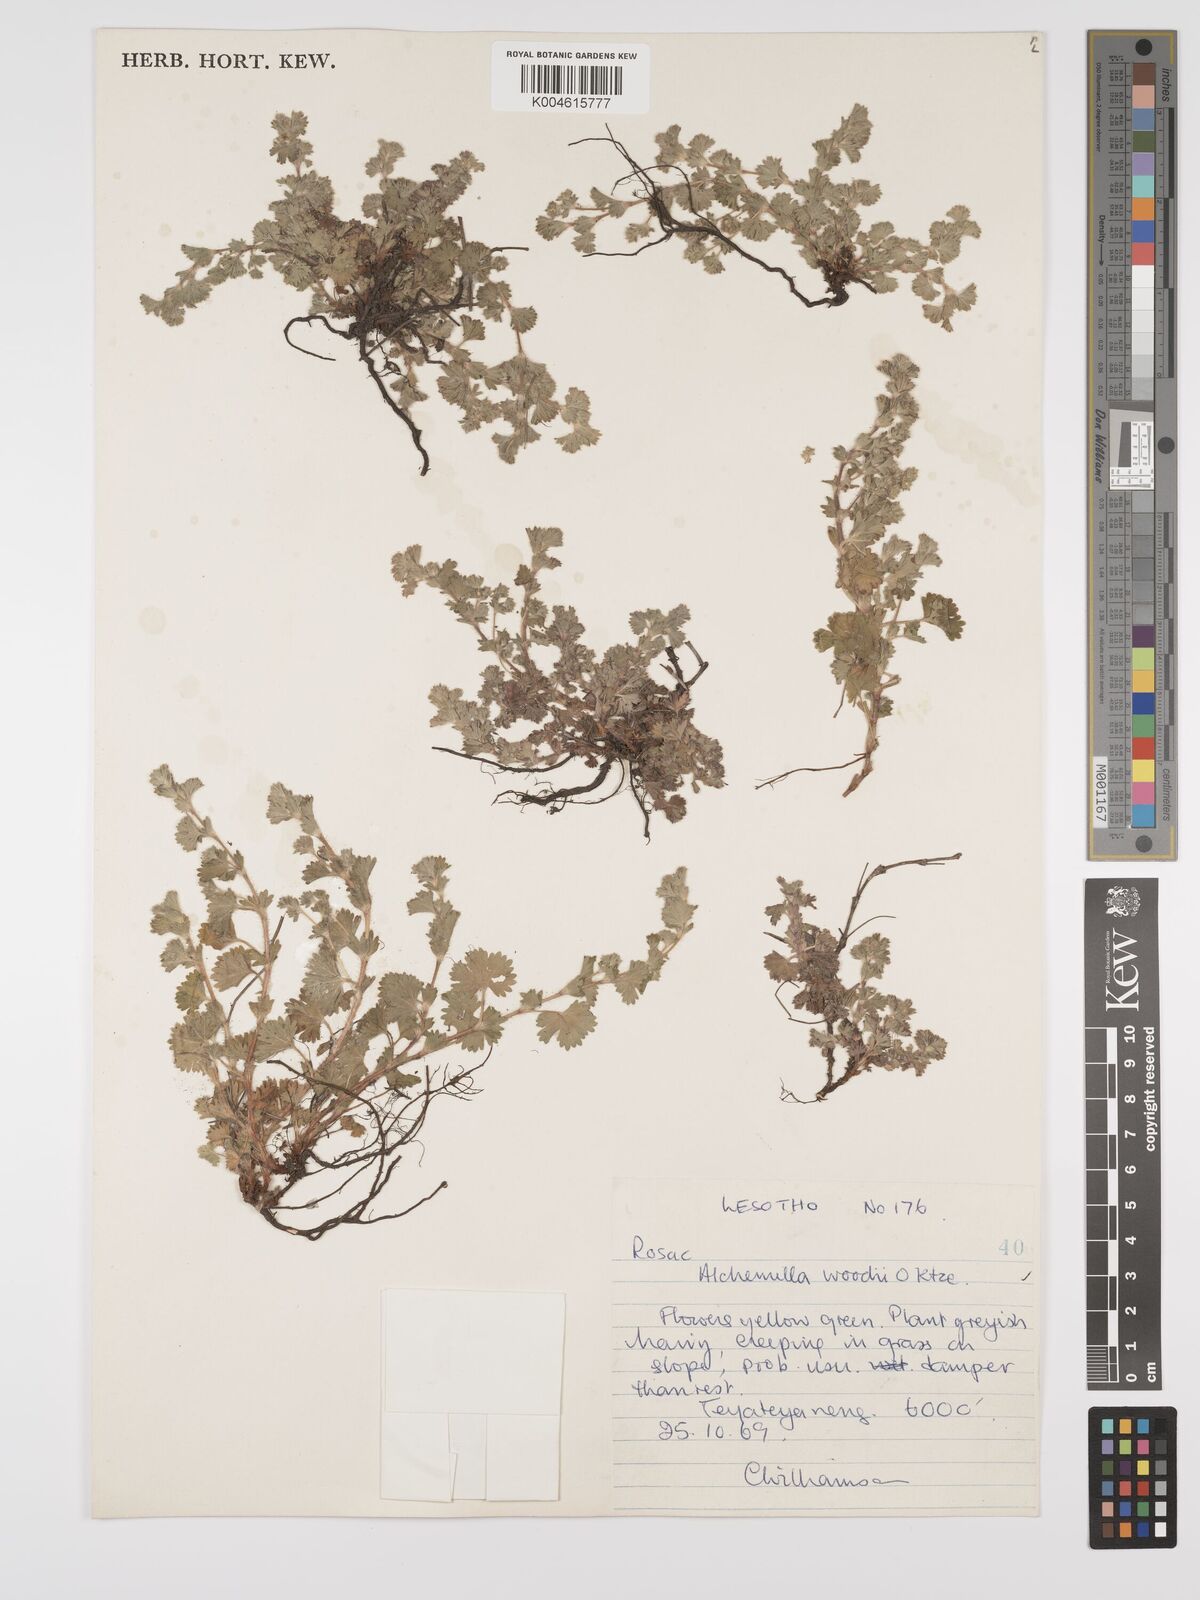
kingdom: Plantae
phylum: Tracheophyta
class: Magnoliopsida
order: Rosales
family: Rosaceae
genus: Alchemilla
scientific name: Alchemilla woodii
